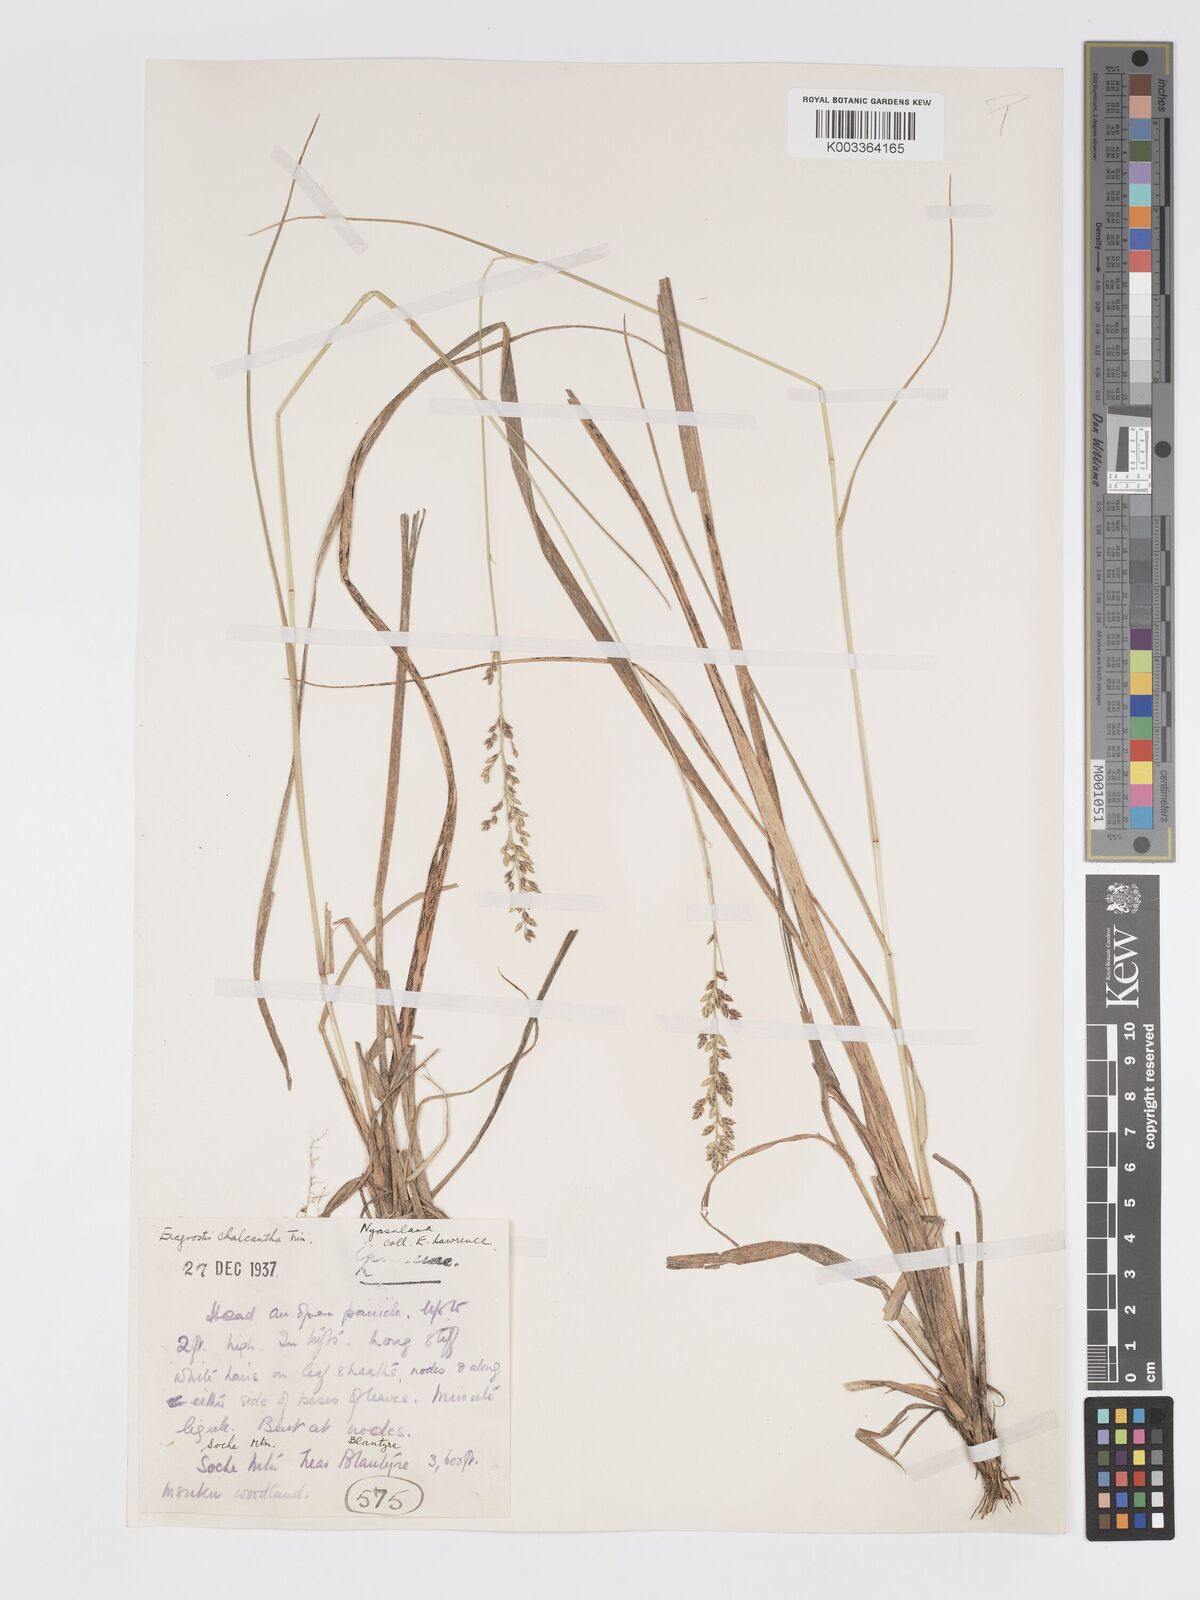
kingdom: Plantae
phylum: Tracheophyta
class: Liliopsida
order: Poales
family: Poaceae
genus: Eragrostis
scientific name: Eragrostis racemosa
